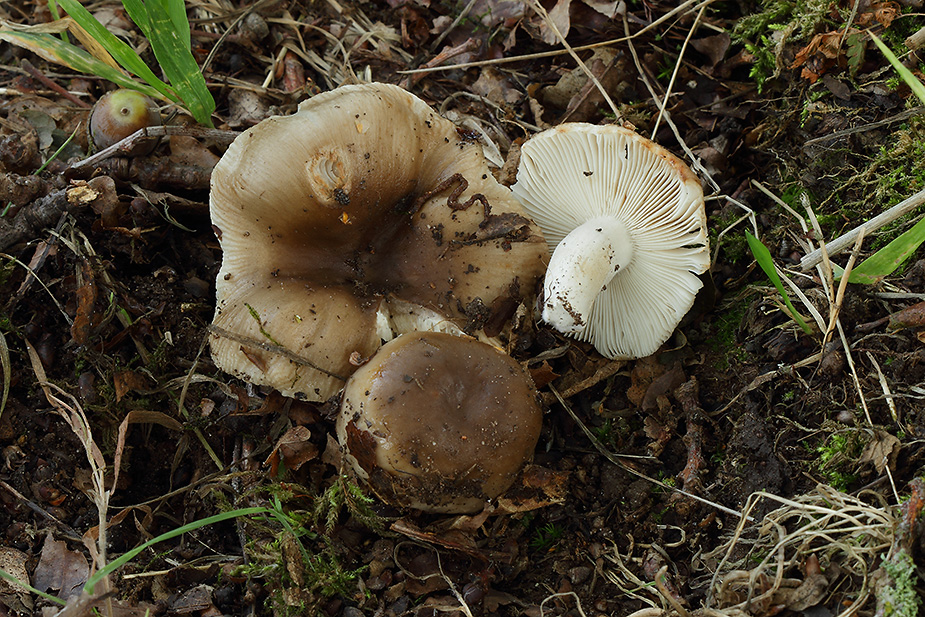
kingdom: Fungi
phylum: Basidiomycota
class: Agaricomycetes
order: Russulales
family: Russulaceae
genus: Russula
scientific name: Russula amoenolens
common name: skarp kam-skørhat
